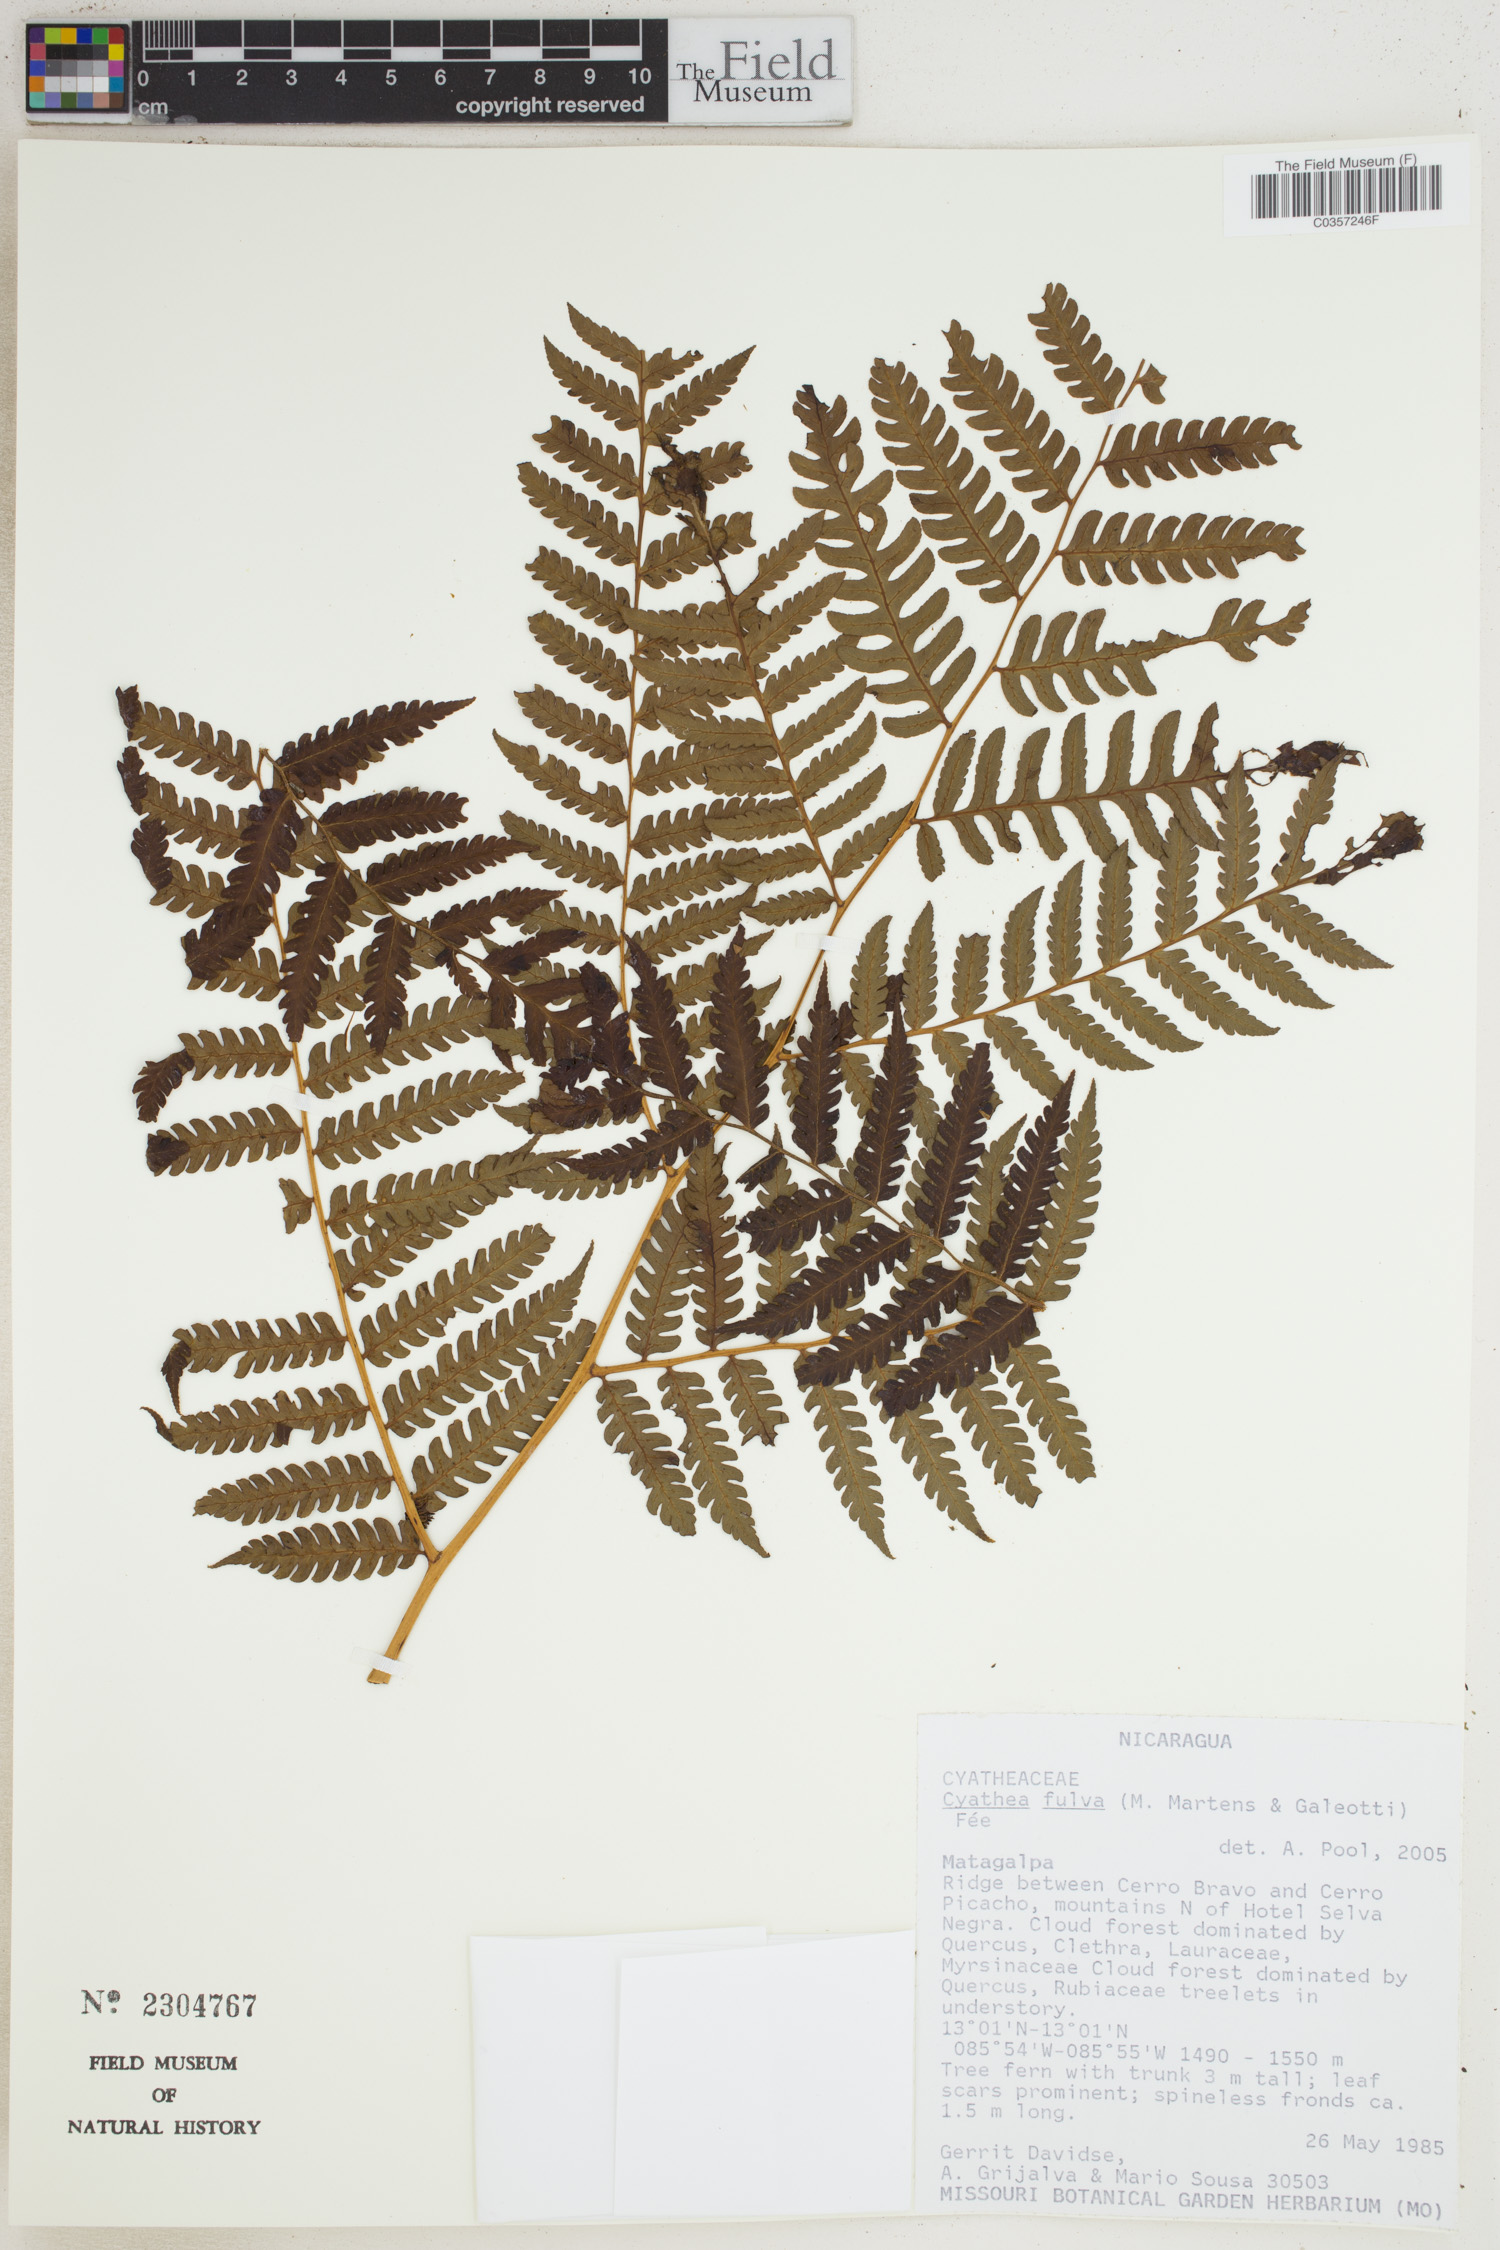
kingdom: Plantae
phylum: Tracheophyta
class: Polypodiopsida
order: Cyatheales
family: Cyatheaceae
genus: Cyathea
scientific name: Cyathea fulva
